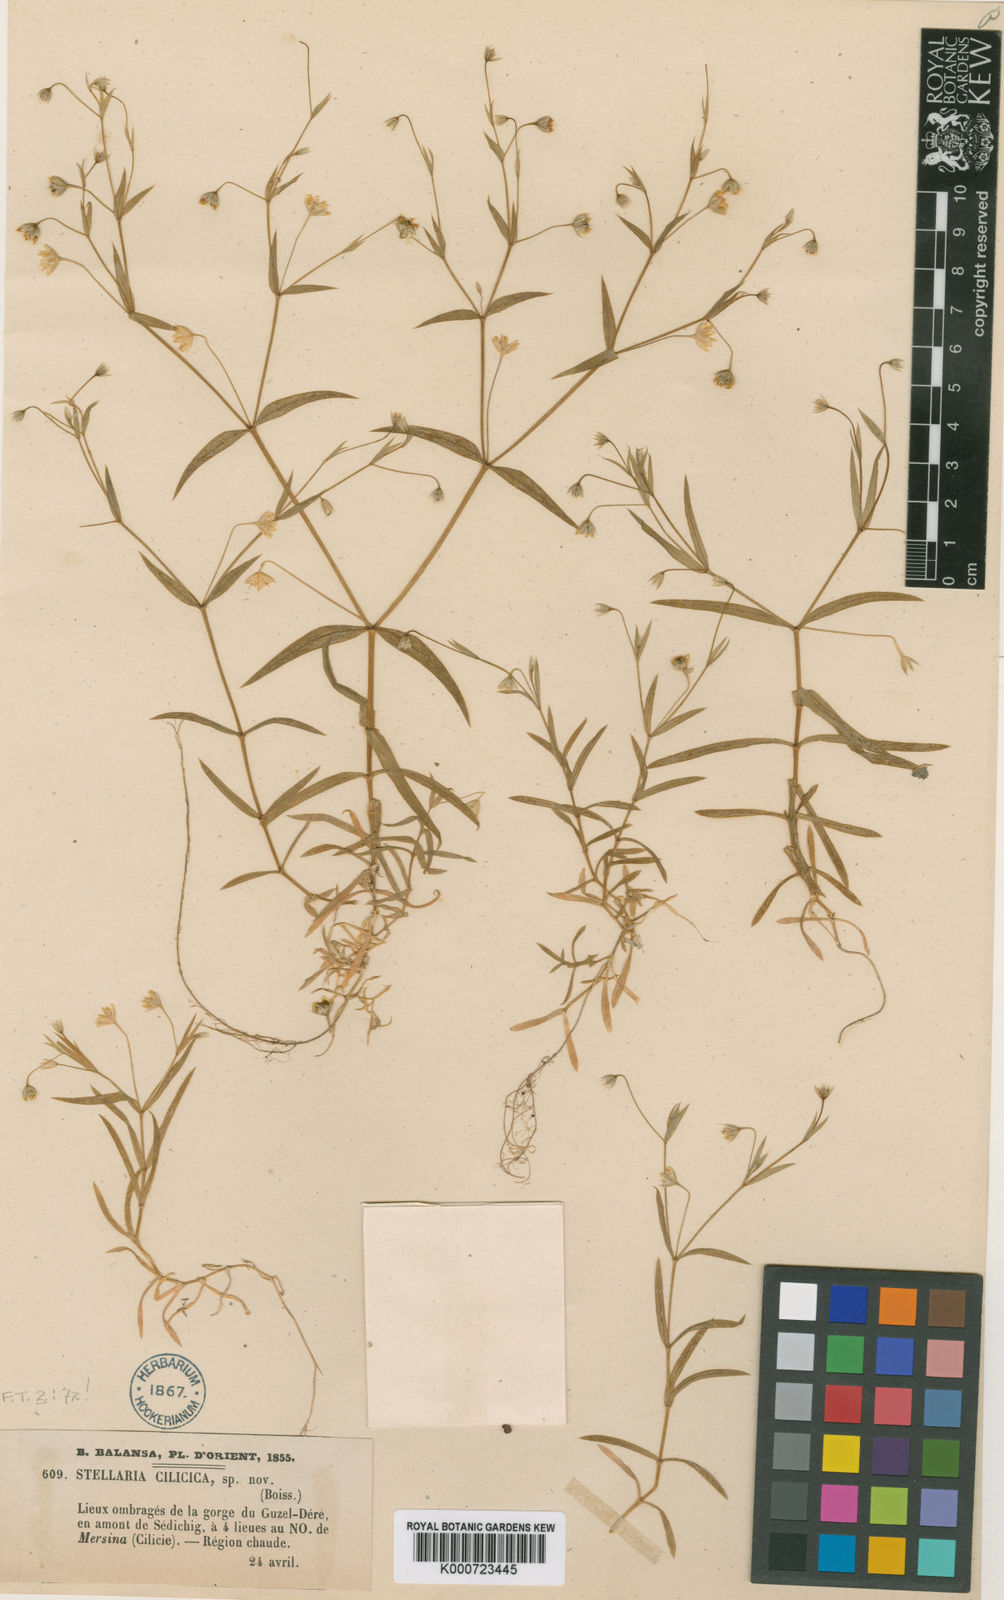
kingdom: Plantae
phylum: Tracheophyta
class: Magnoliopsida
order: Caryophyllales
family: Caryophyllaceae
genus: Rabelera
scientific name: Rabelera cilicica
